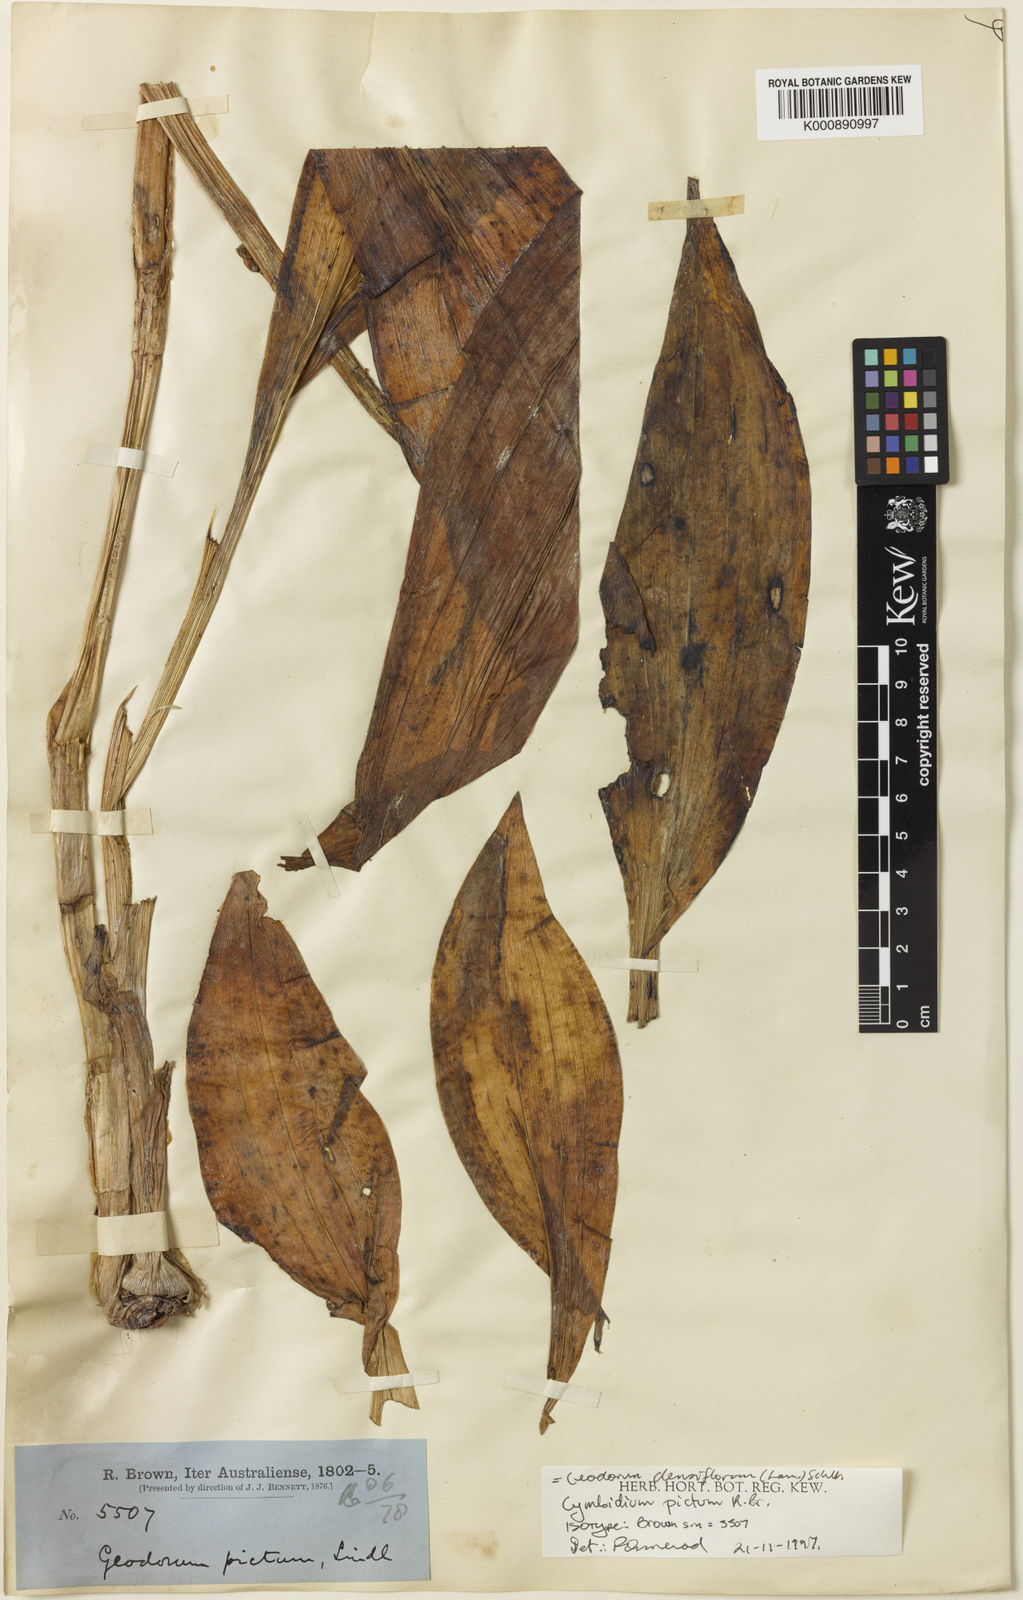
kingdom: Plantae
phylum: Tracheophyta
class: Liliopsida
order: Asparagales
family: Orchidaceae
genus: Eulophia
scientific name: Eulophia cernua
